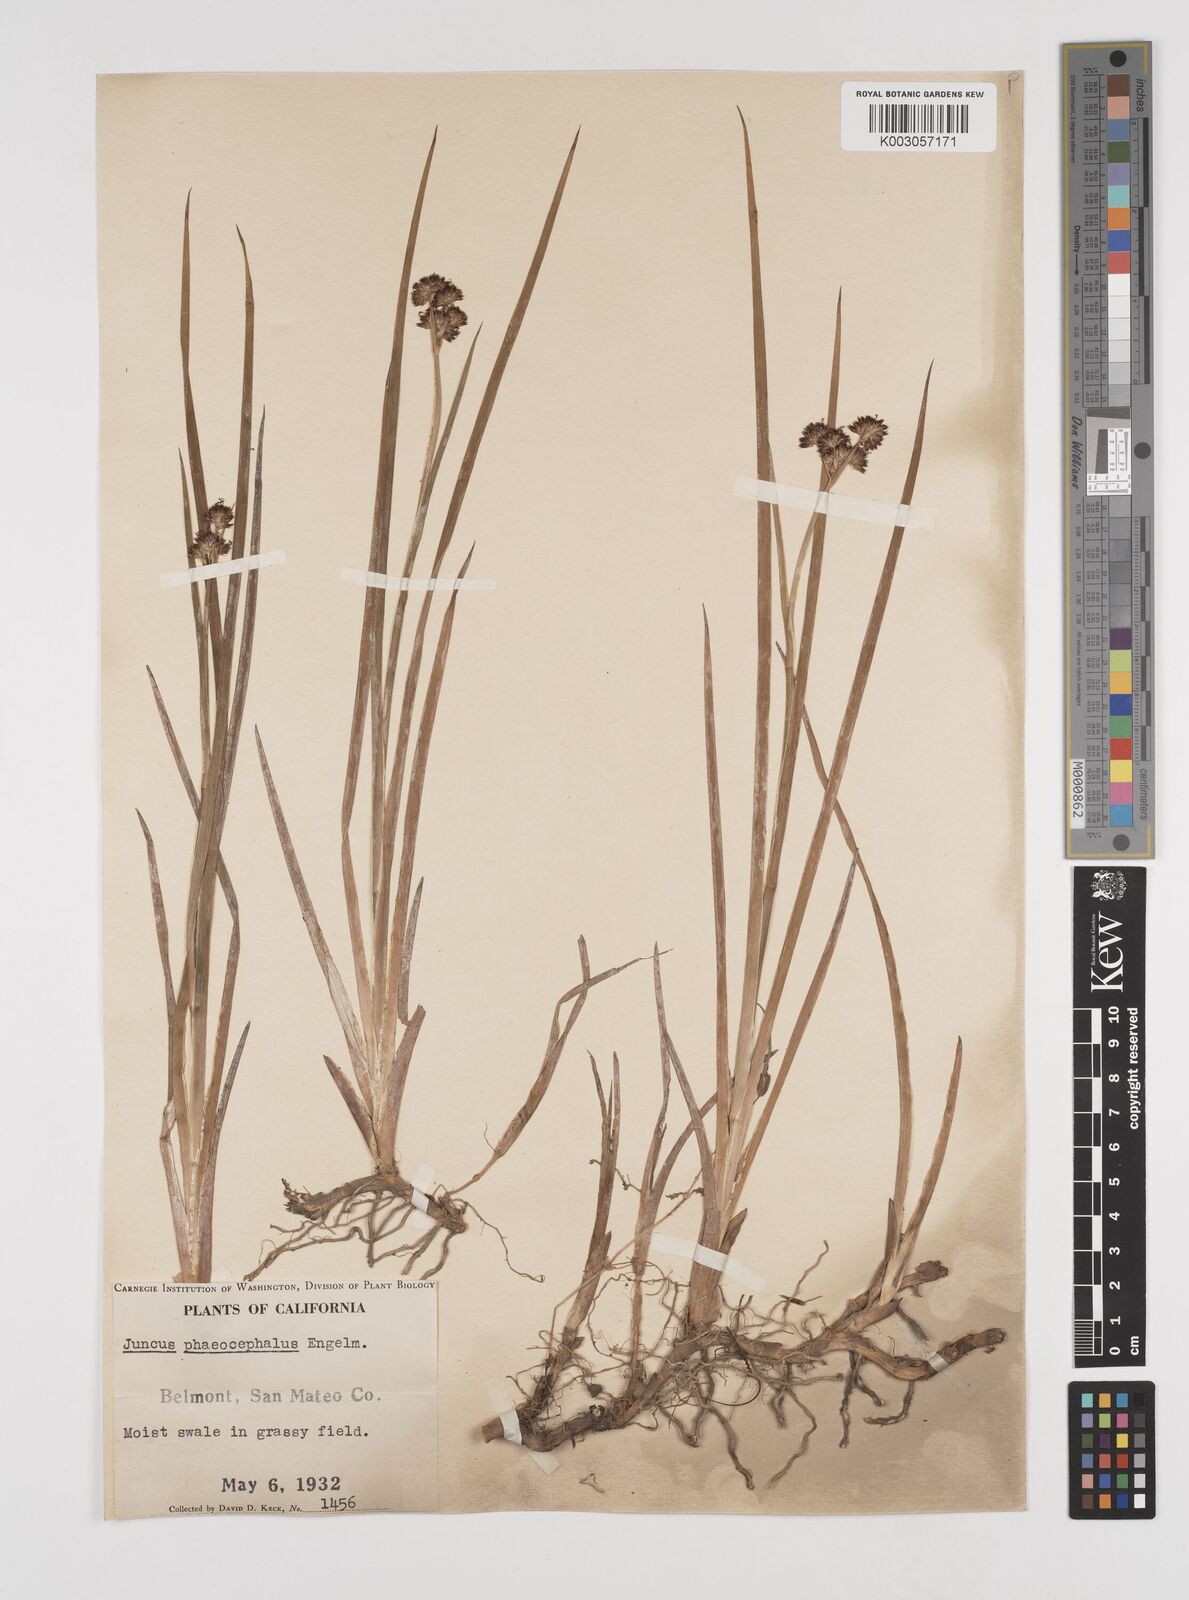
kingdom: Plantae
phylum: Tracheophyta
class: Liliopsida
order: Poales
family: Juncaceae
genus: Juncus
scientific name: Juncus phaeocephalus
